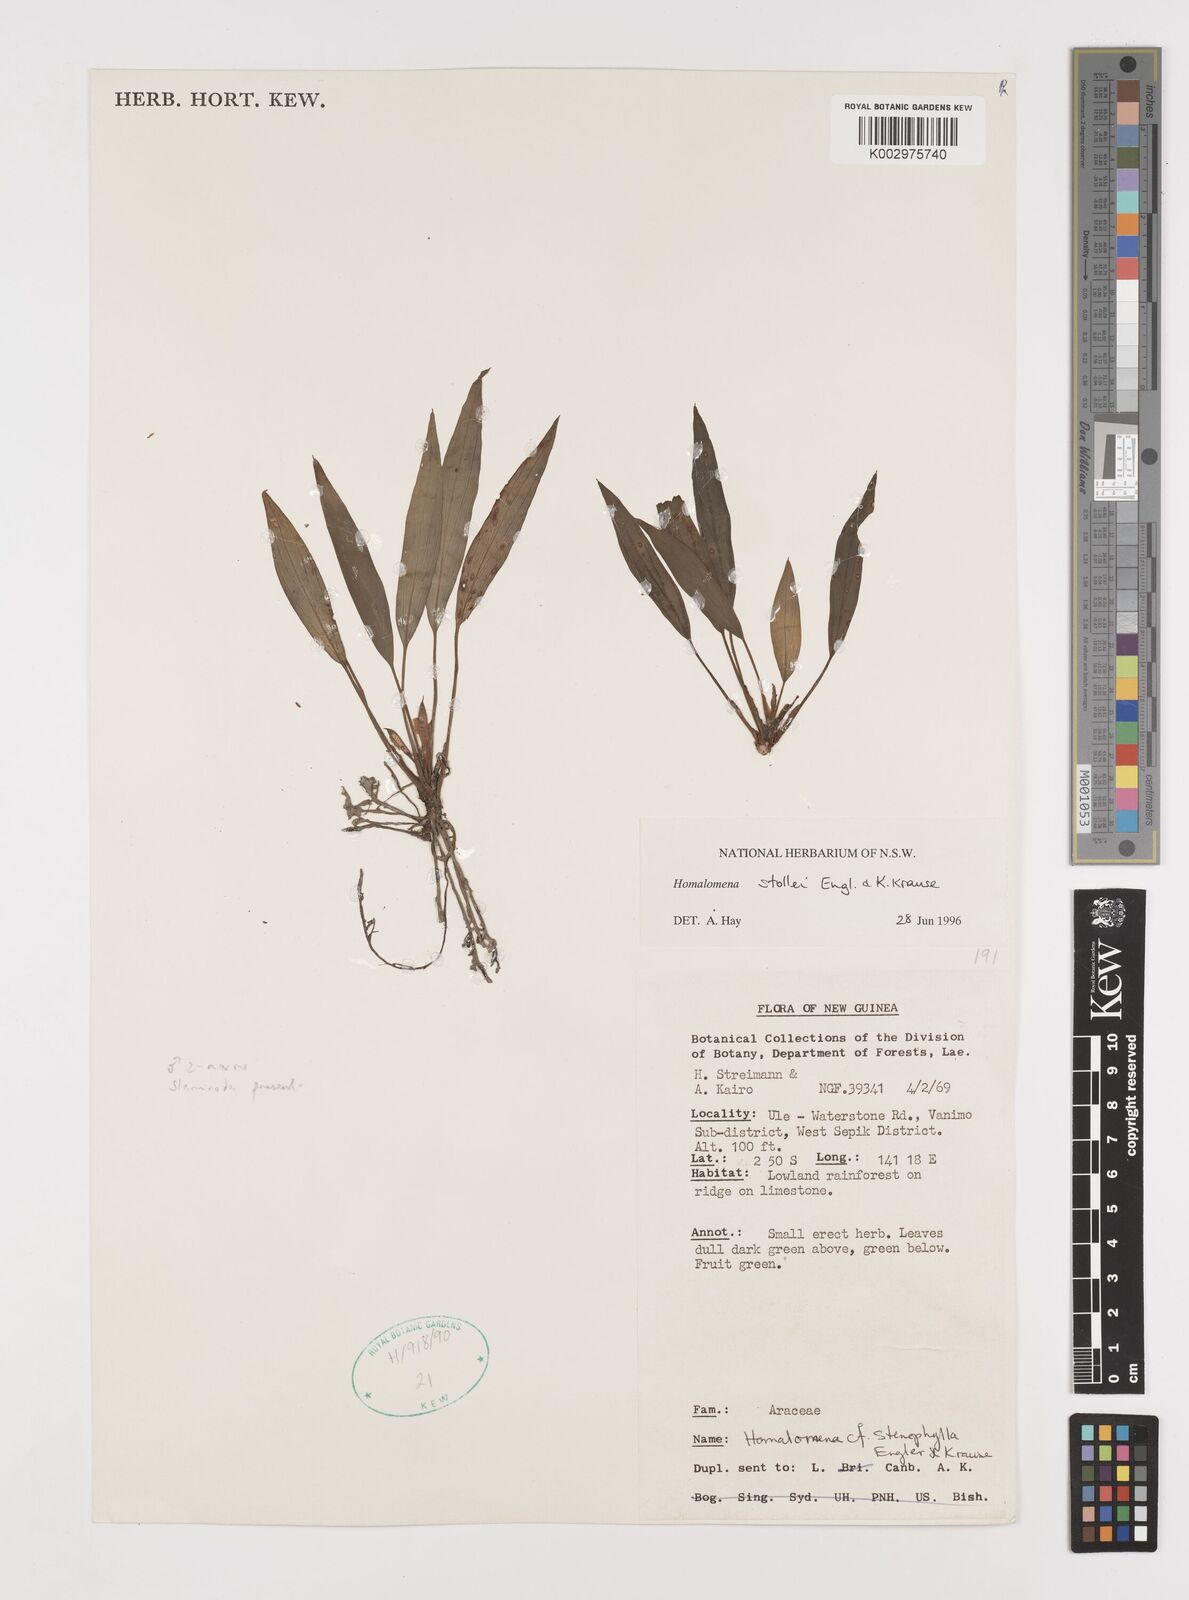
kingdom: Plantae
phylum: Tracheophyta
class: Liliopsida
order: Alismatales
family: Araceae
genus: Homalomena
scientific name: Homalomena stollei
